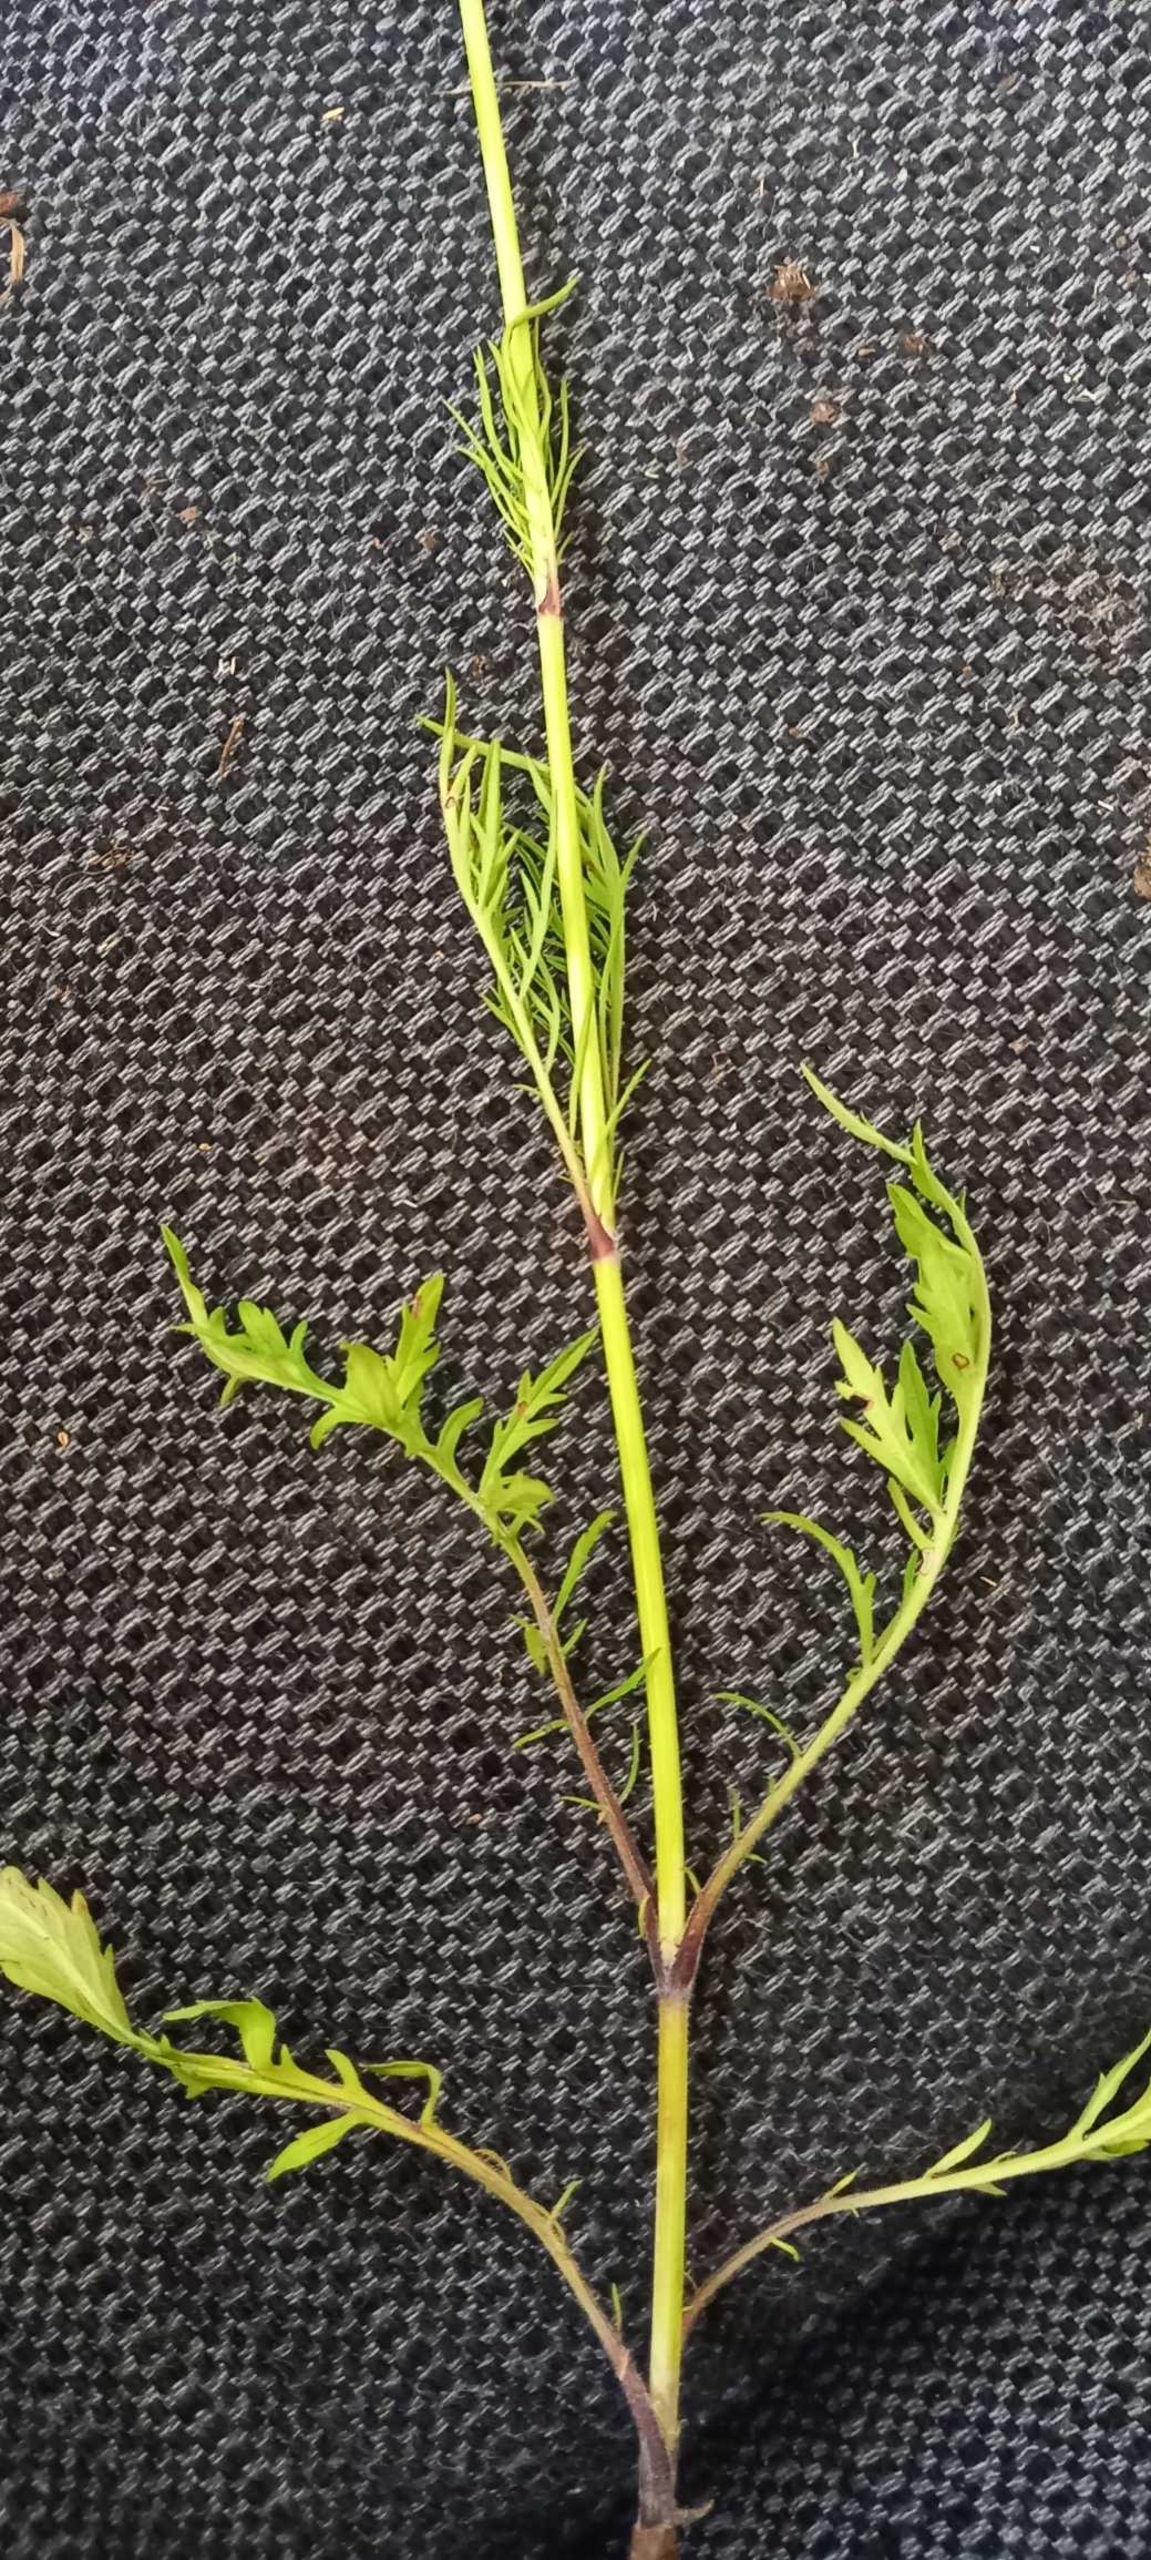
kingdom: Plantae
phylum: Tracheophyta
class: Magnoliopsida
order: Dipsacales
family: Caprifoliaceae
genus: Scabiosa
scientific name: Scabiosa columbaria
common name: Due-skabiose
